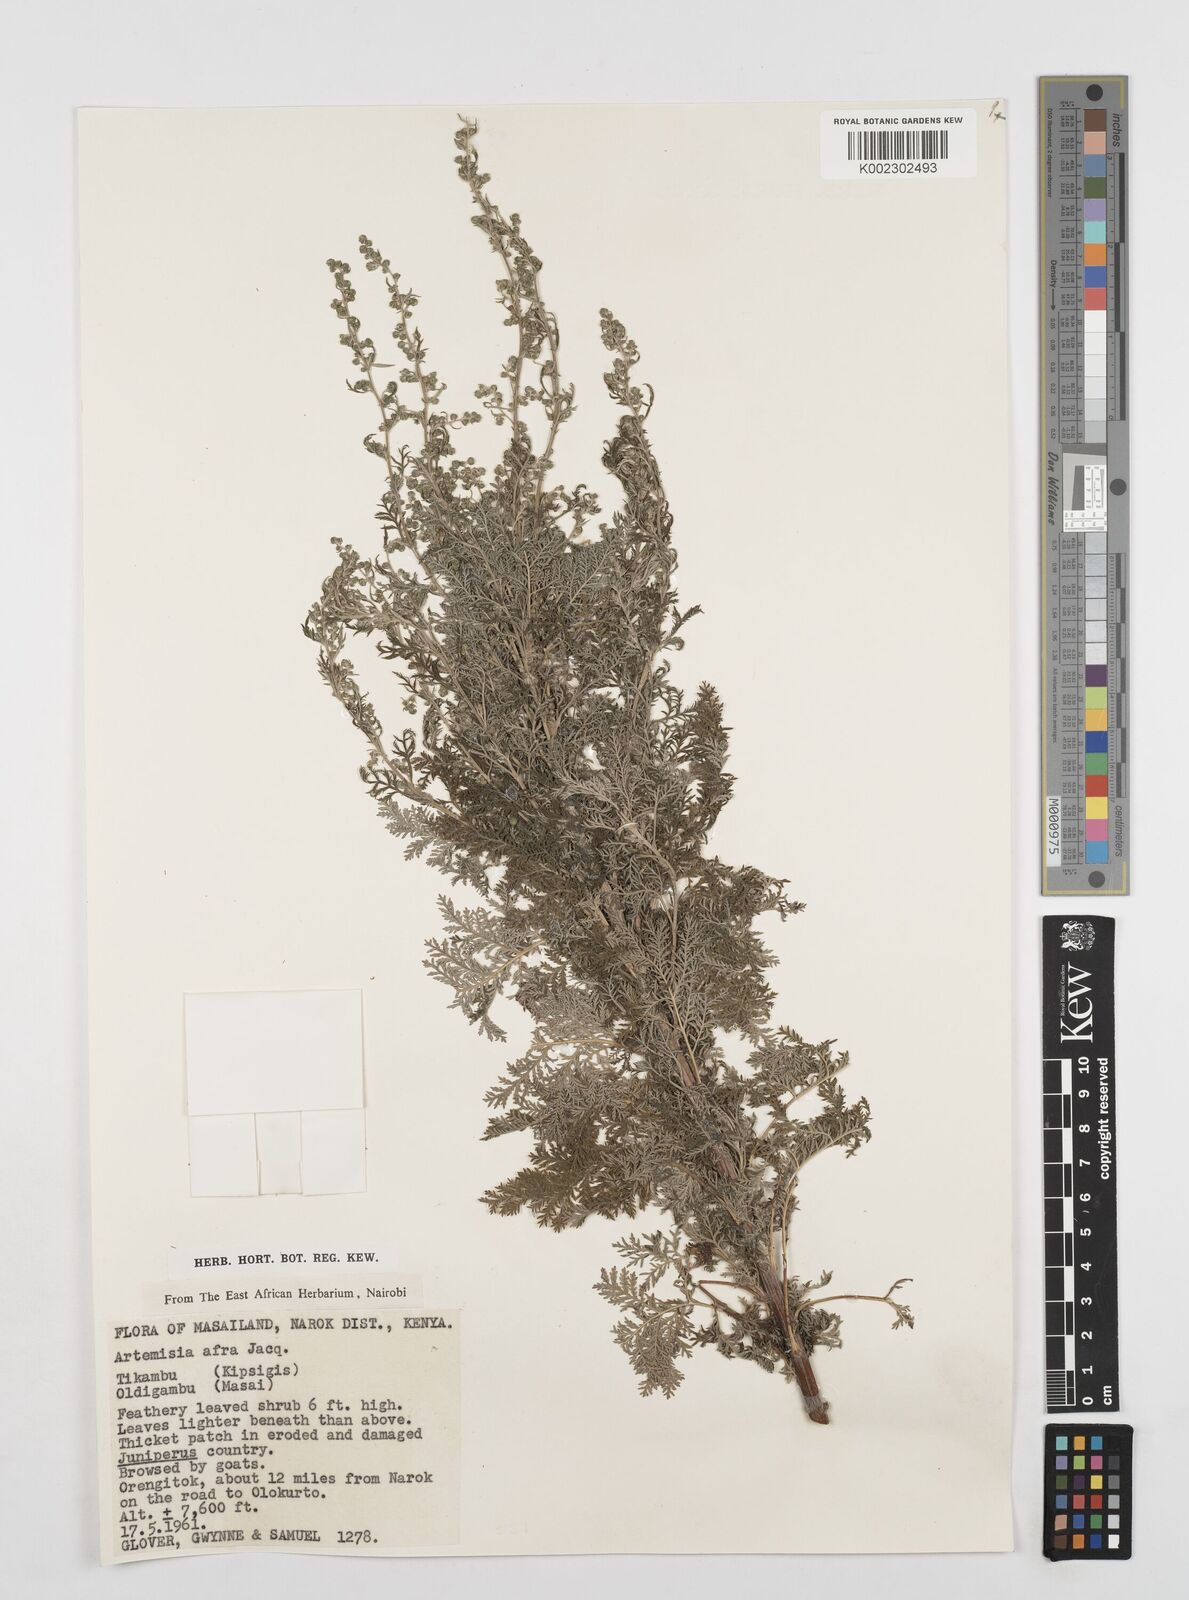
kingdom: Plantae
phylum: Tracheophyta
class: Magnoliopsida
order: Asterales
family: Asteraceae
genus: Artemisia
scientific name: Artemisia afra
